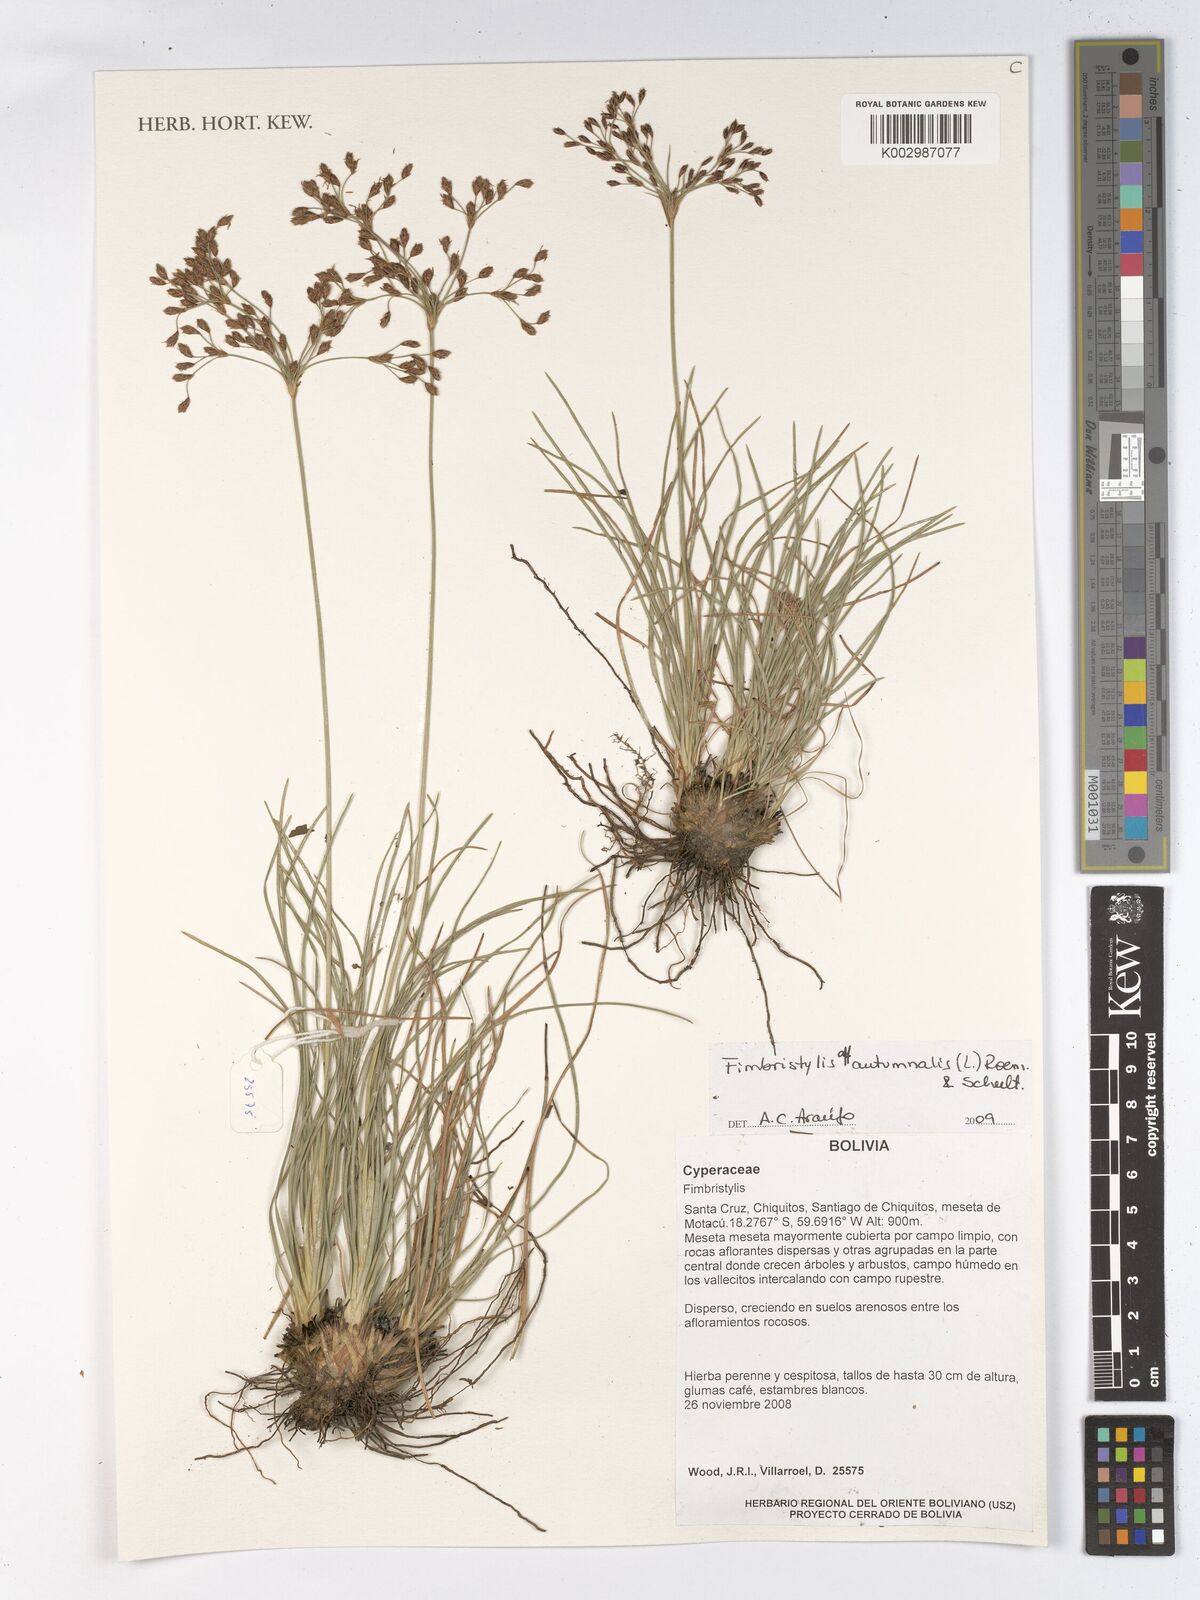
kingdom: Plantae
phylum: Tracheophyta
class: Liliopsida
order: Poales
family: Cyperaceae
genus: Fimbristylis
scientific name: Fimbristylis autumnalis
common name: Slender fimbristylis
